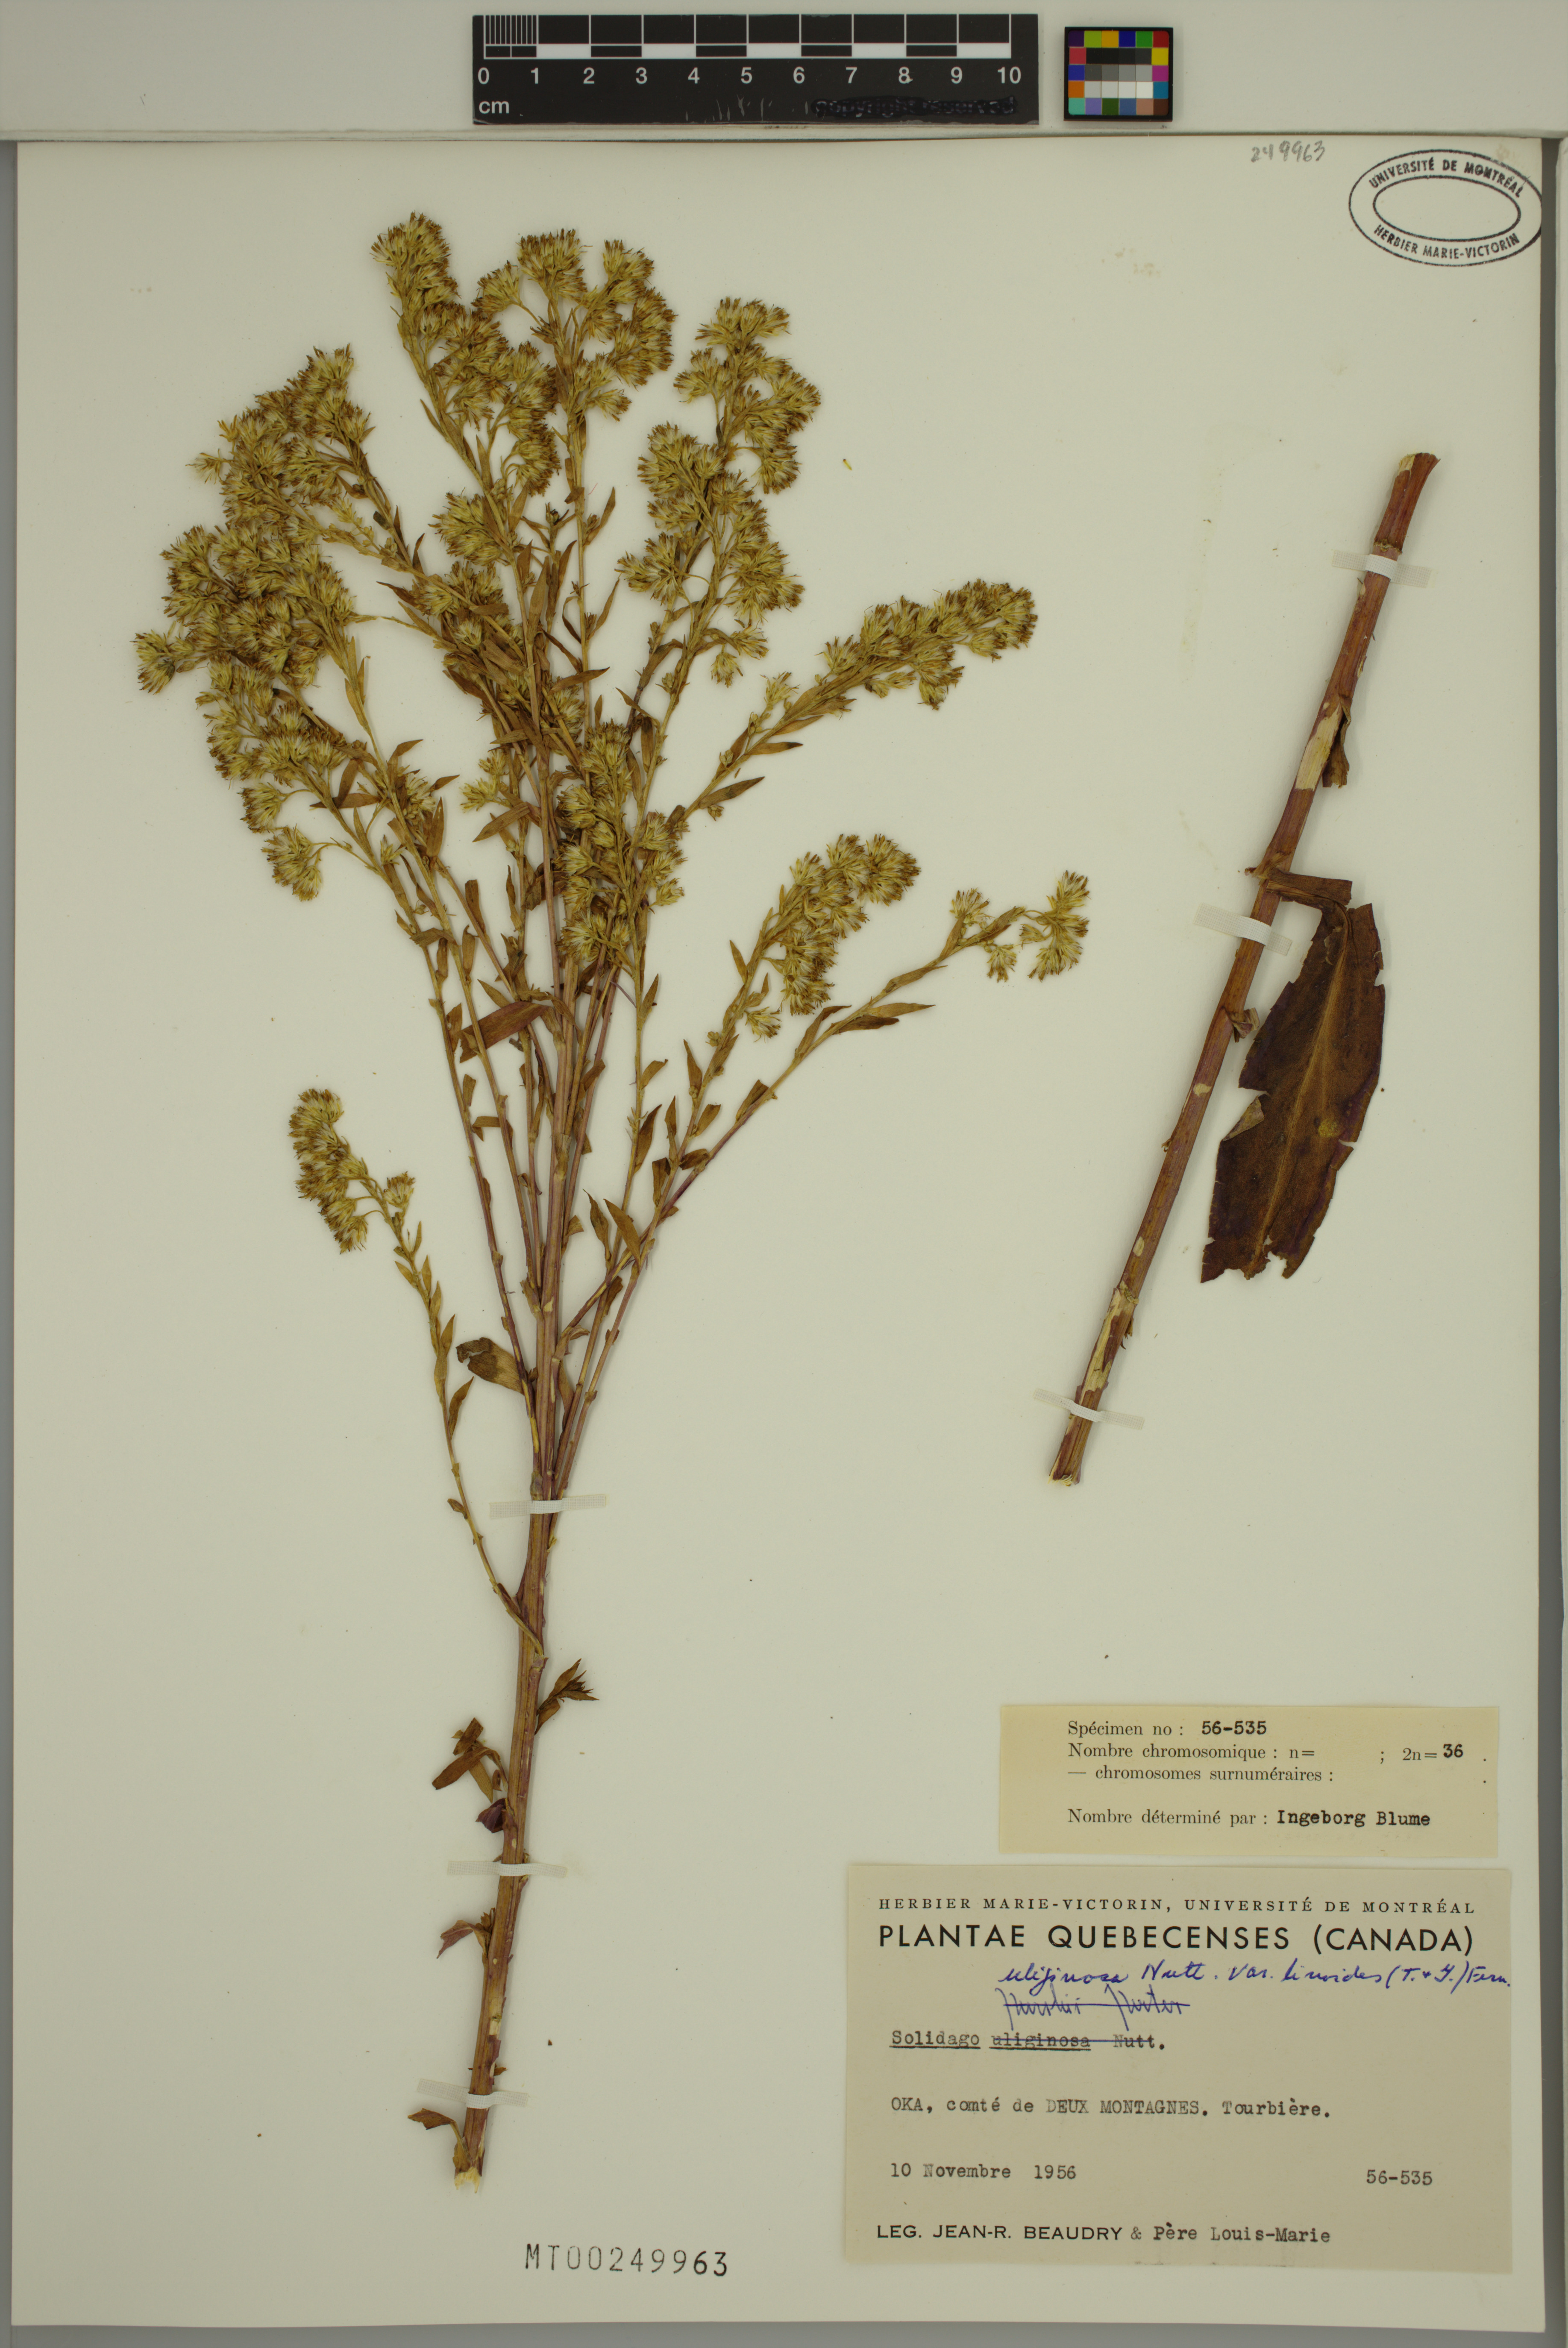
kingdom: Plantae
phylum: Tracheophyta
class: Magnoliopsida
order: Asterales
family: Asteraceae
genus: Solidago
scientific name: Solidago uliginosa
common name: Bog goldenrod
